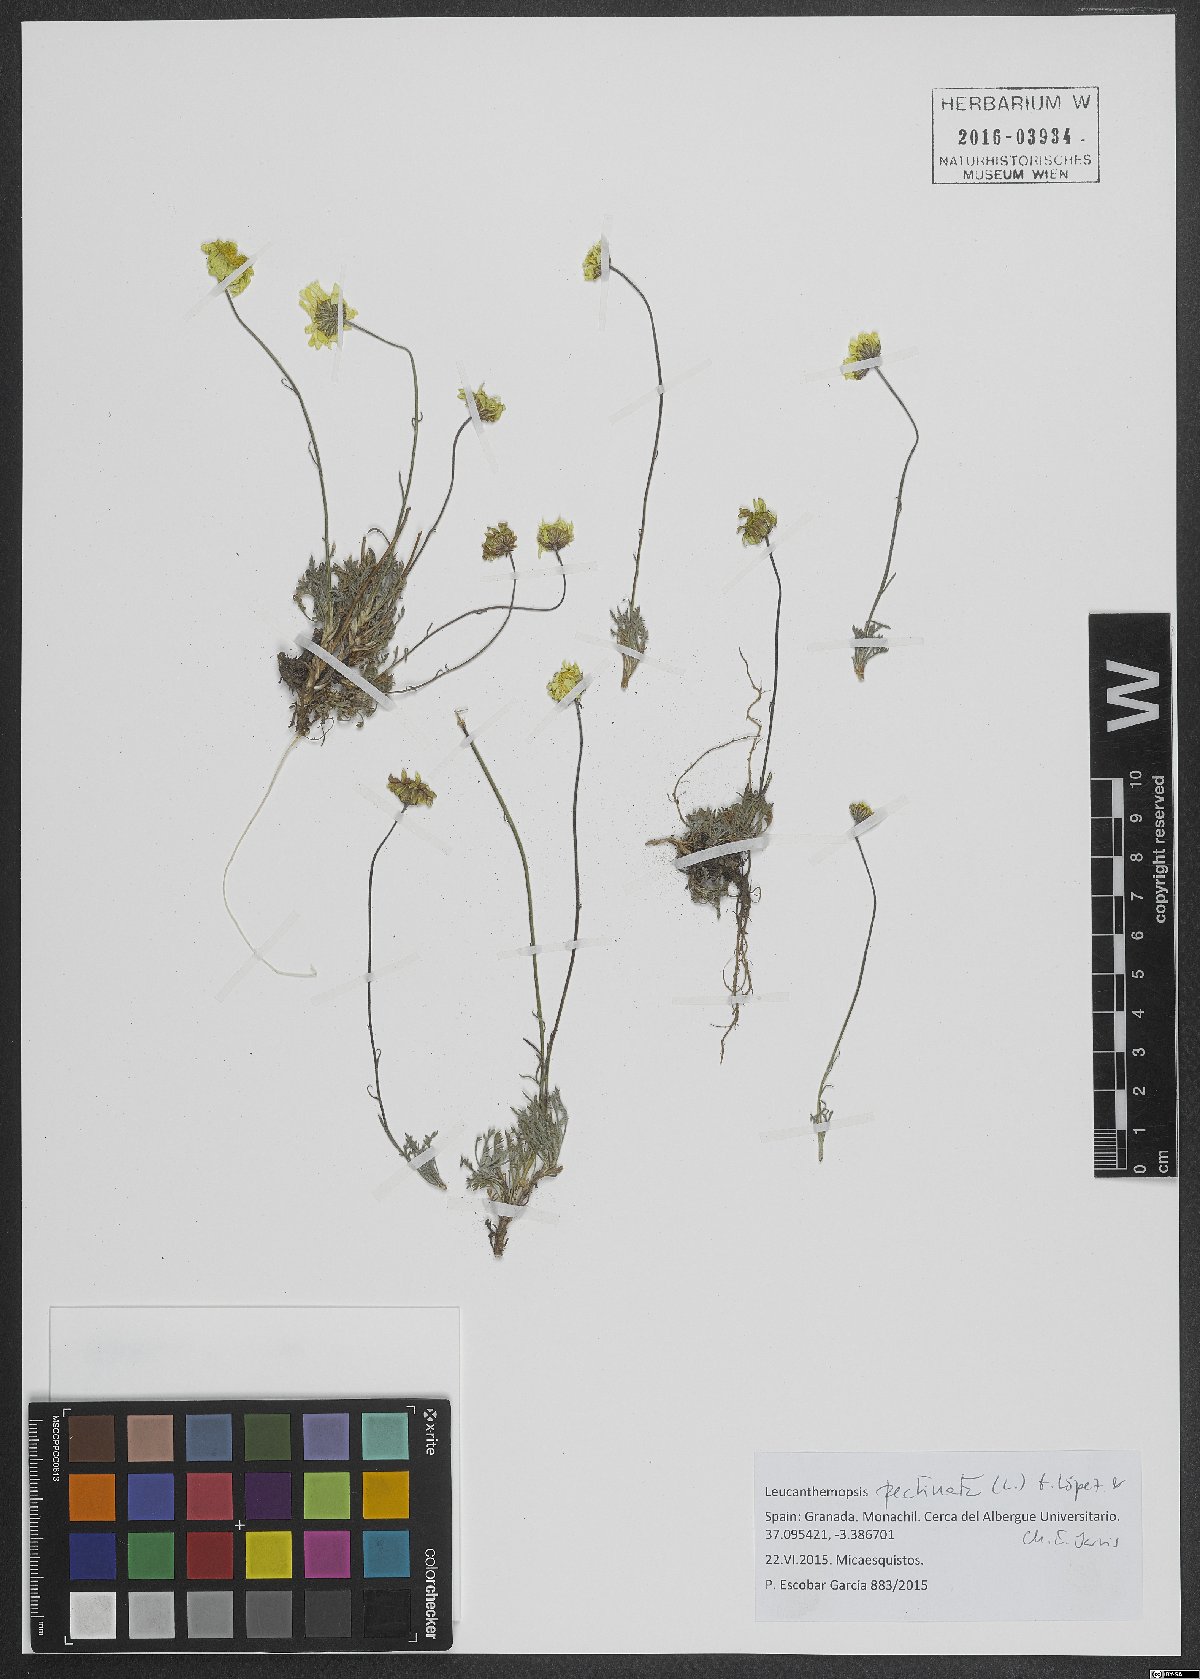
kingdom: Plantae
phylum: Tracheophyta
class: Magnoliopsida
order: Asterales
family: Asteraceae
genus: Leucanthemopsis
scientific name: Leucanthemopsis pectinata
